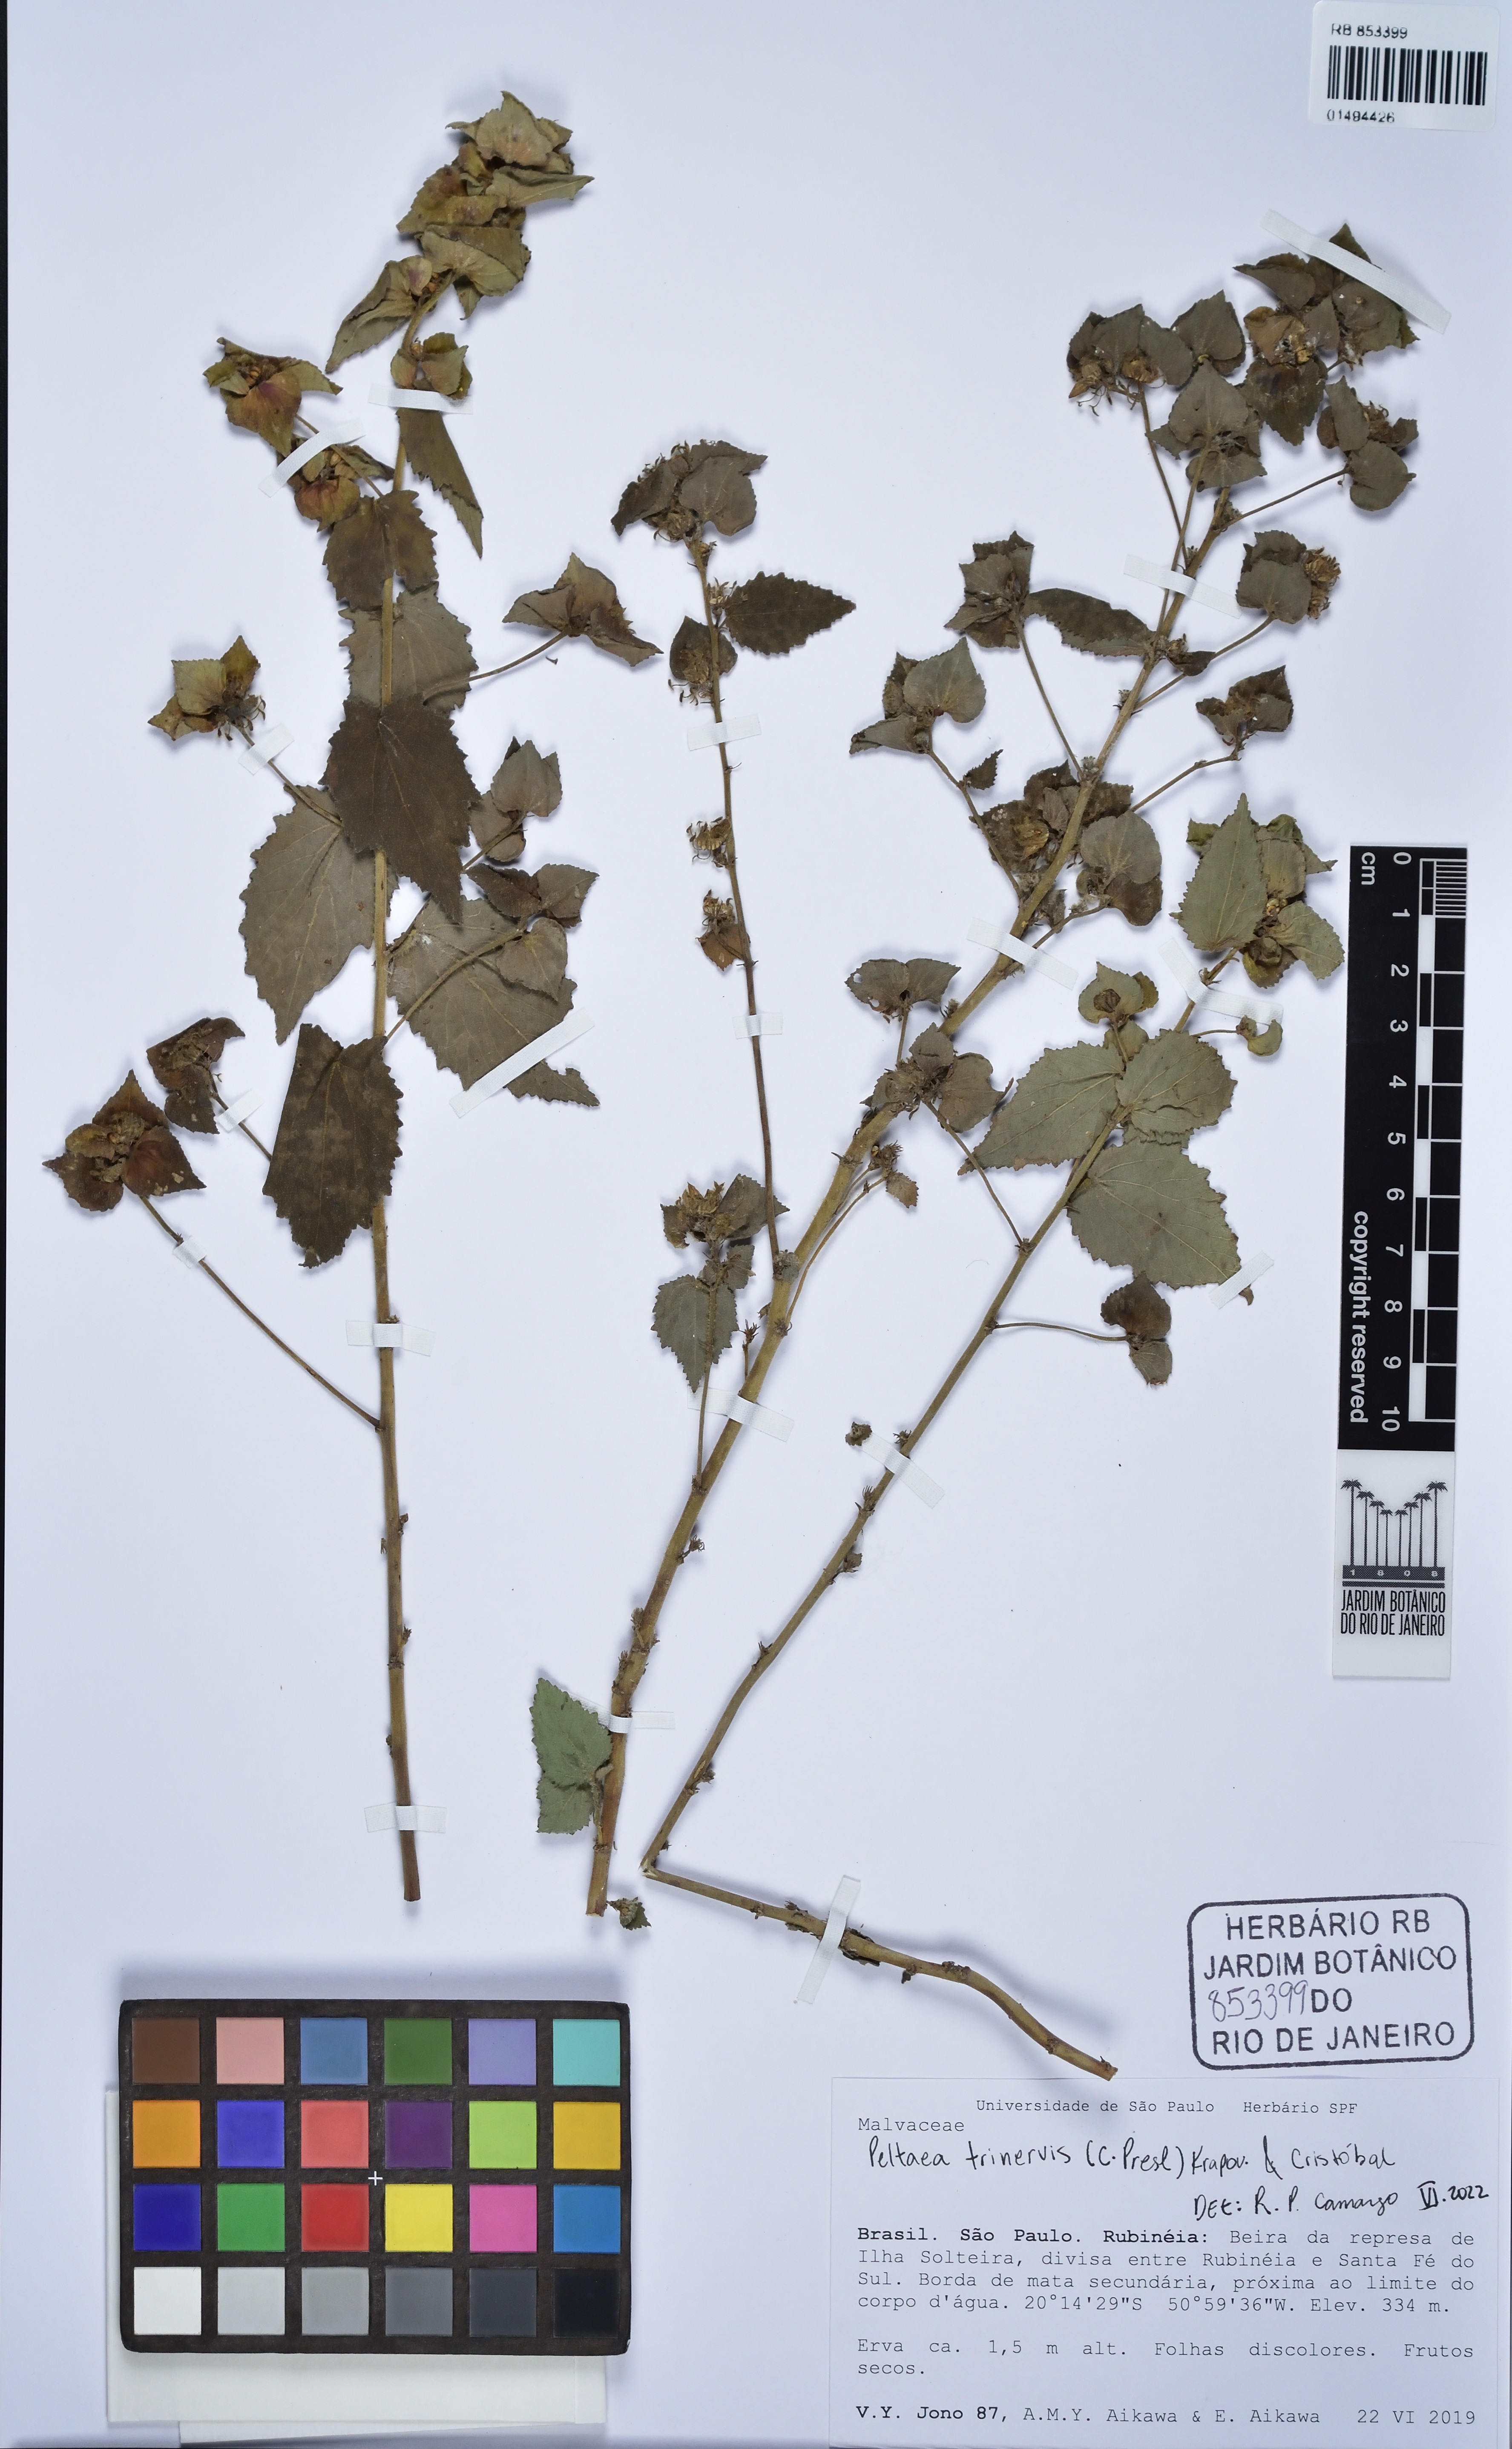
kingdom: Plantae
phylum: Tracheophyta
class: Magnoliopsida
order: Malvales
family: Malvaceae
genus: Peltaea
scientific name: Peltaea trinervis
